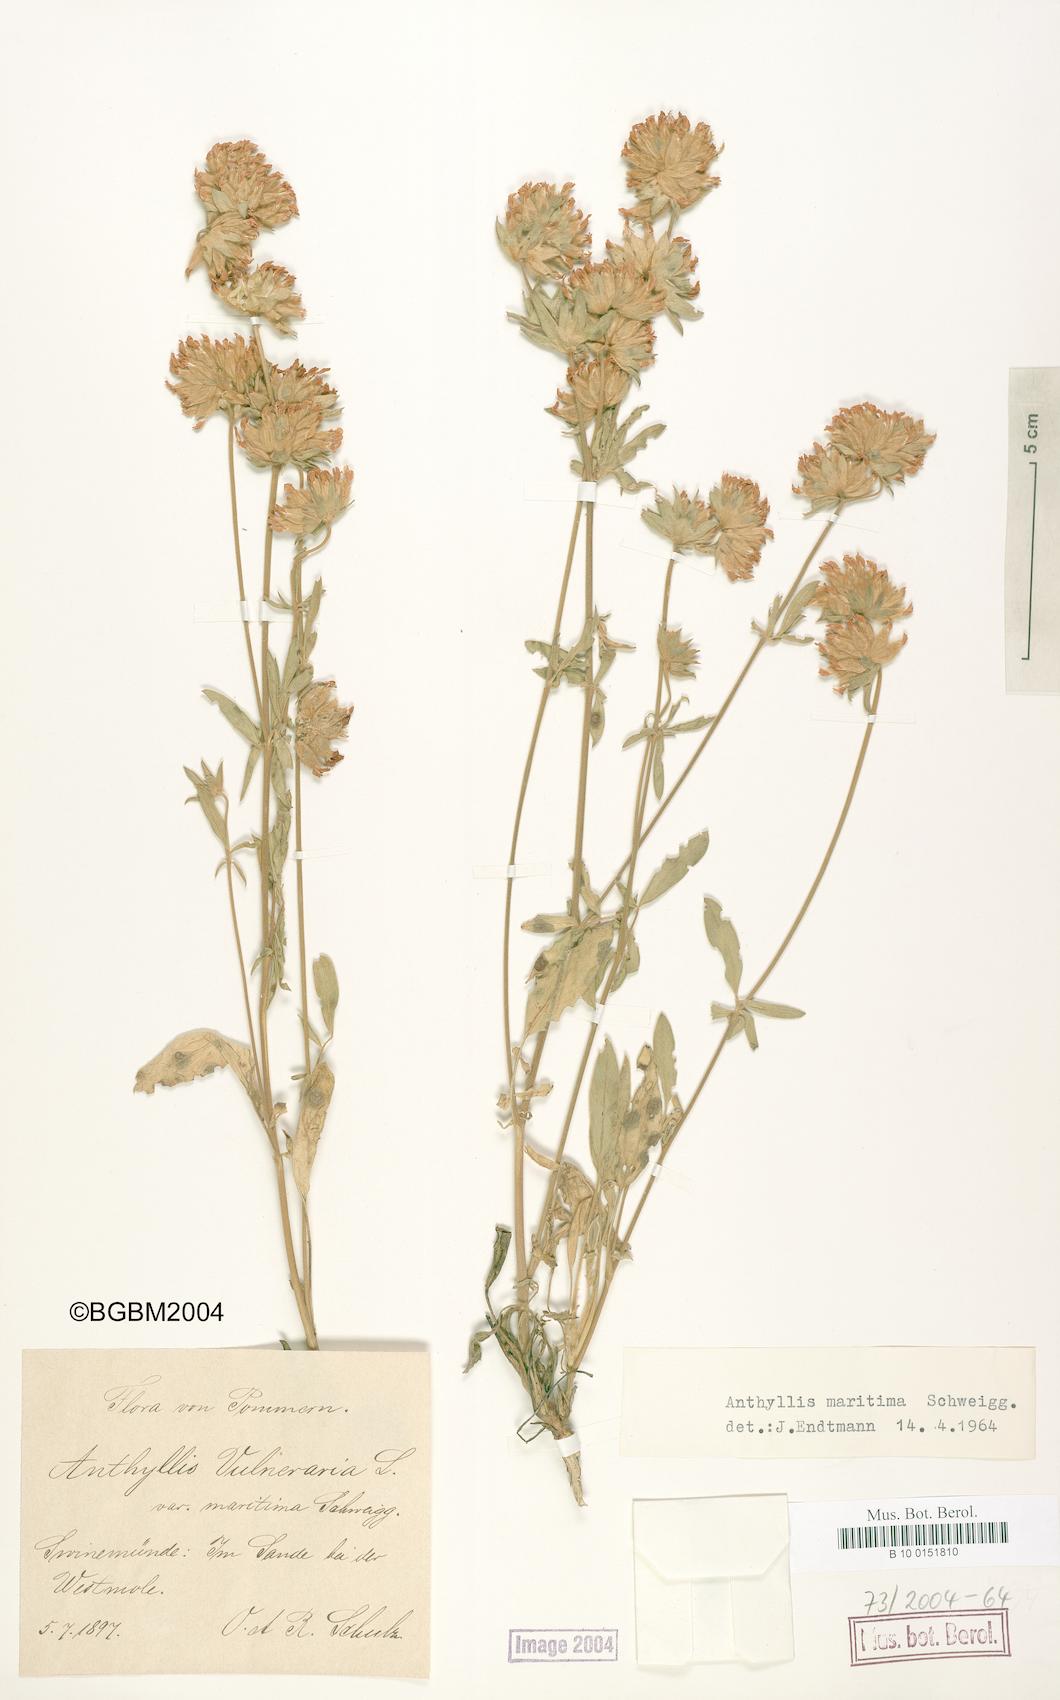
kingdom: Plantae
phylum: Tracheophyta
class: Magnoliopsida
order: Fabales
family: Fabaceae
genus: Anthyllis
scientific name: Anthyllis vulneraria
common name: Kidney vetch
